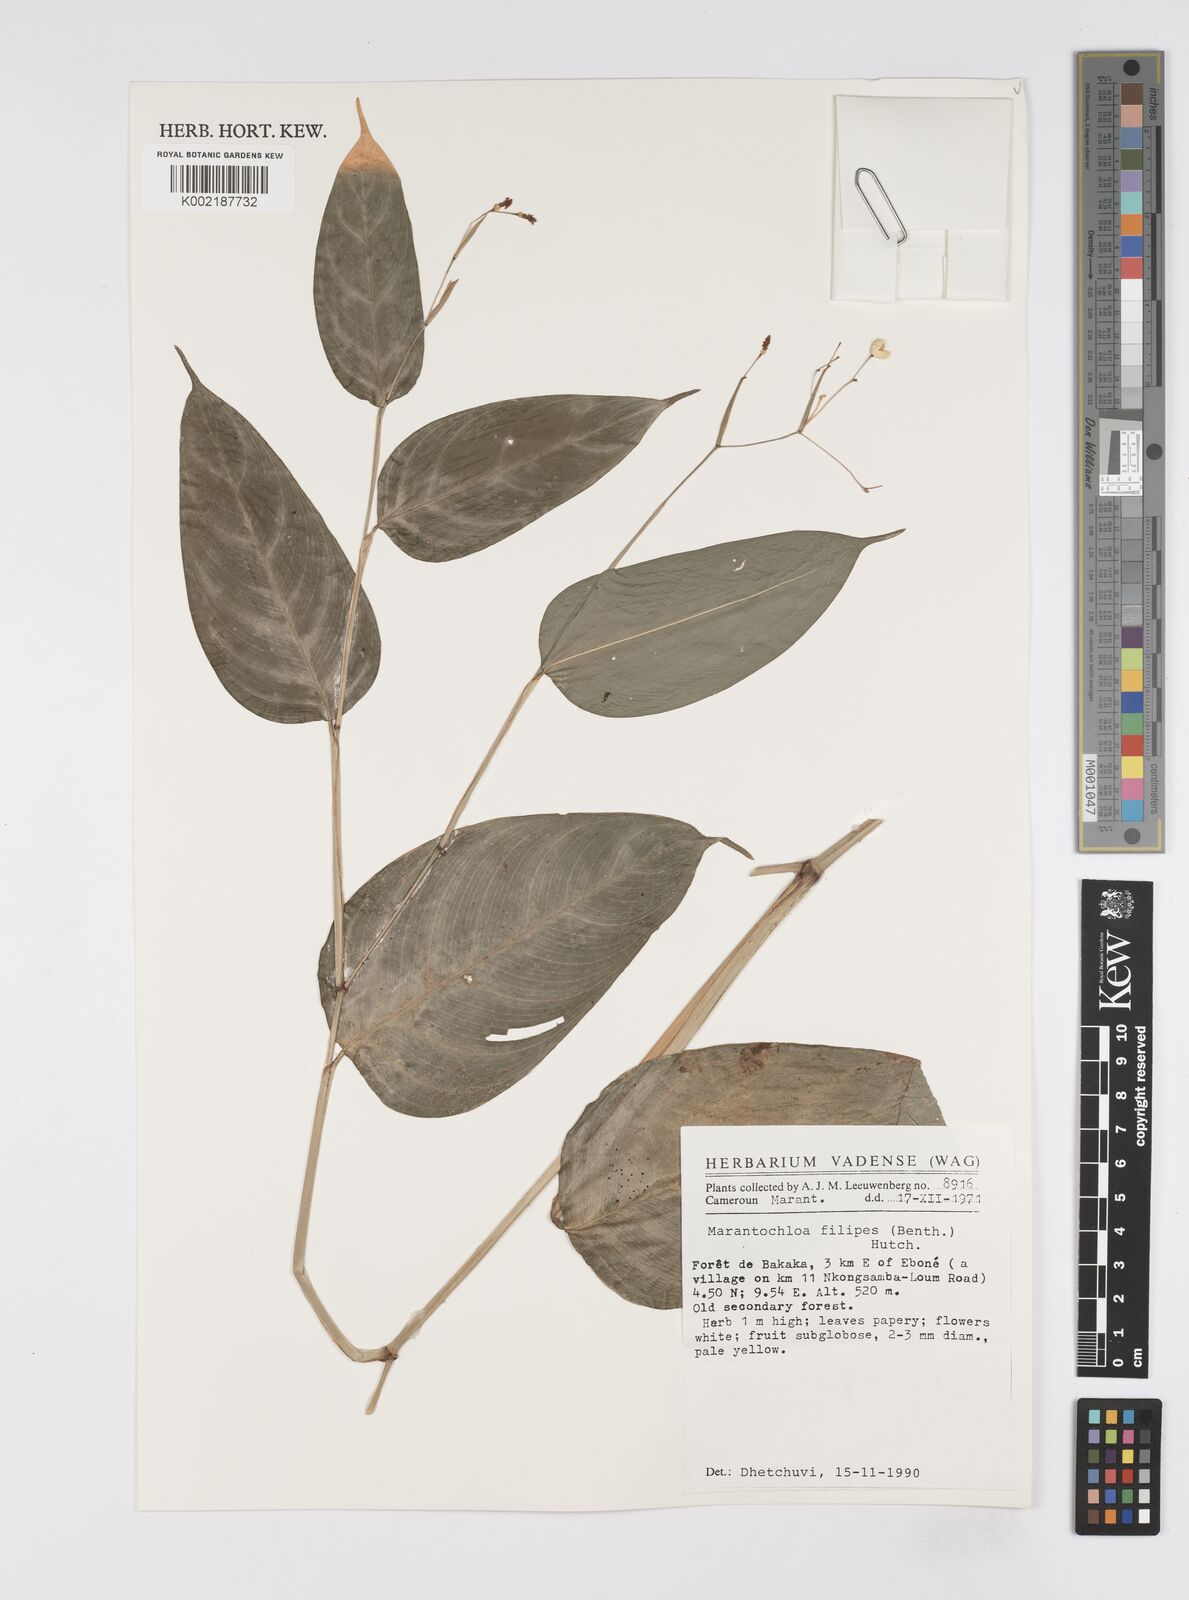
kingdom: Plantae
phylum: Tracheophyta
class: Liliopsida
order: Zingiberales
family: Marantaceae
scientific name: Marantaceae
